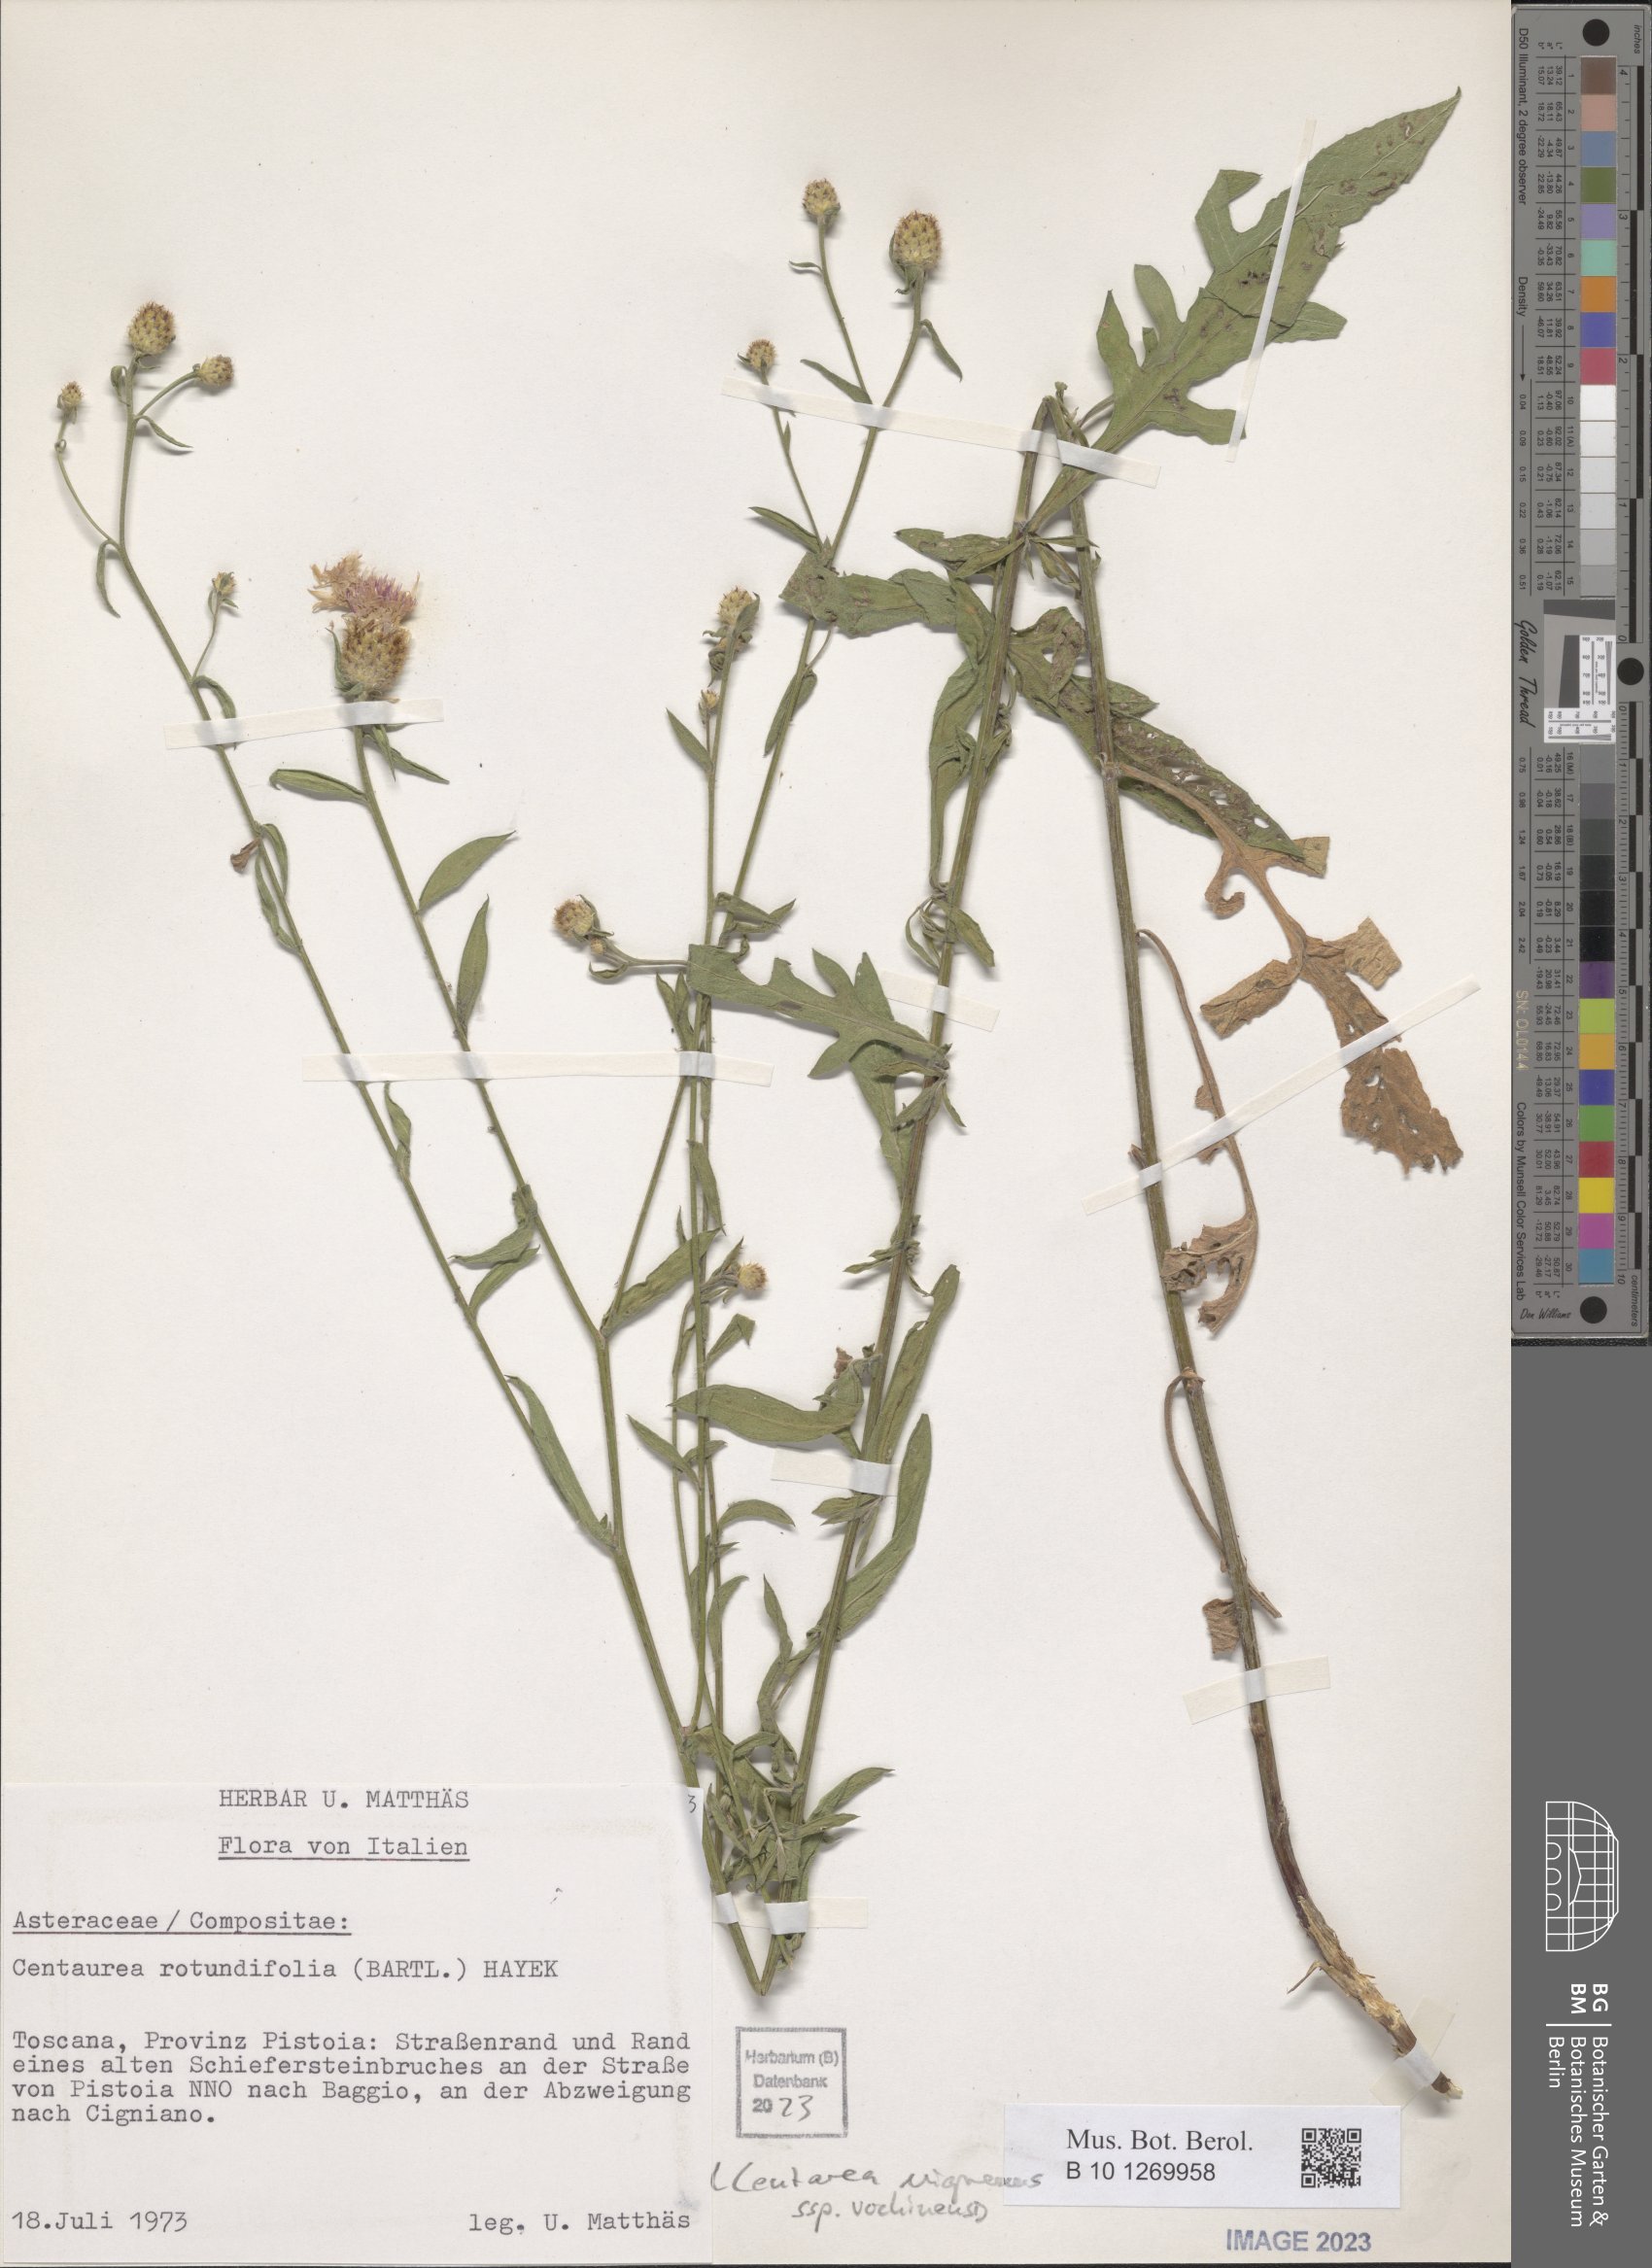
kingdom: Plantae
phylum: Tracheophyta
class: Magnoliopsida
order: Asterales
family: Asteraceae
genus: Centaurea
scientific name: Centaurea carniolica
